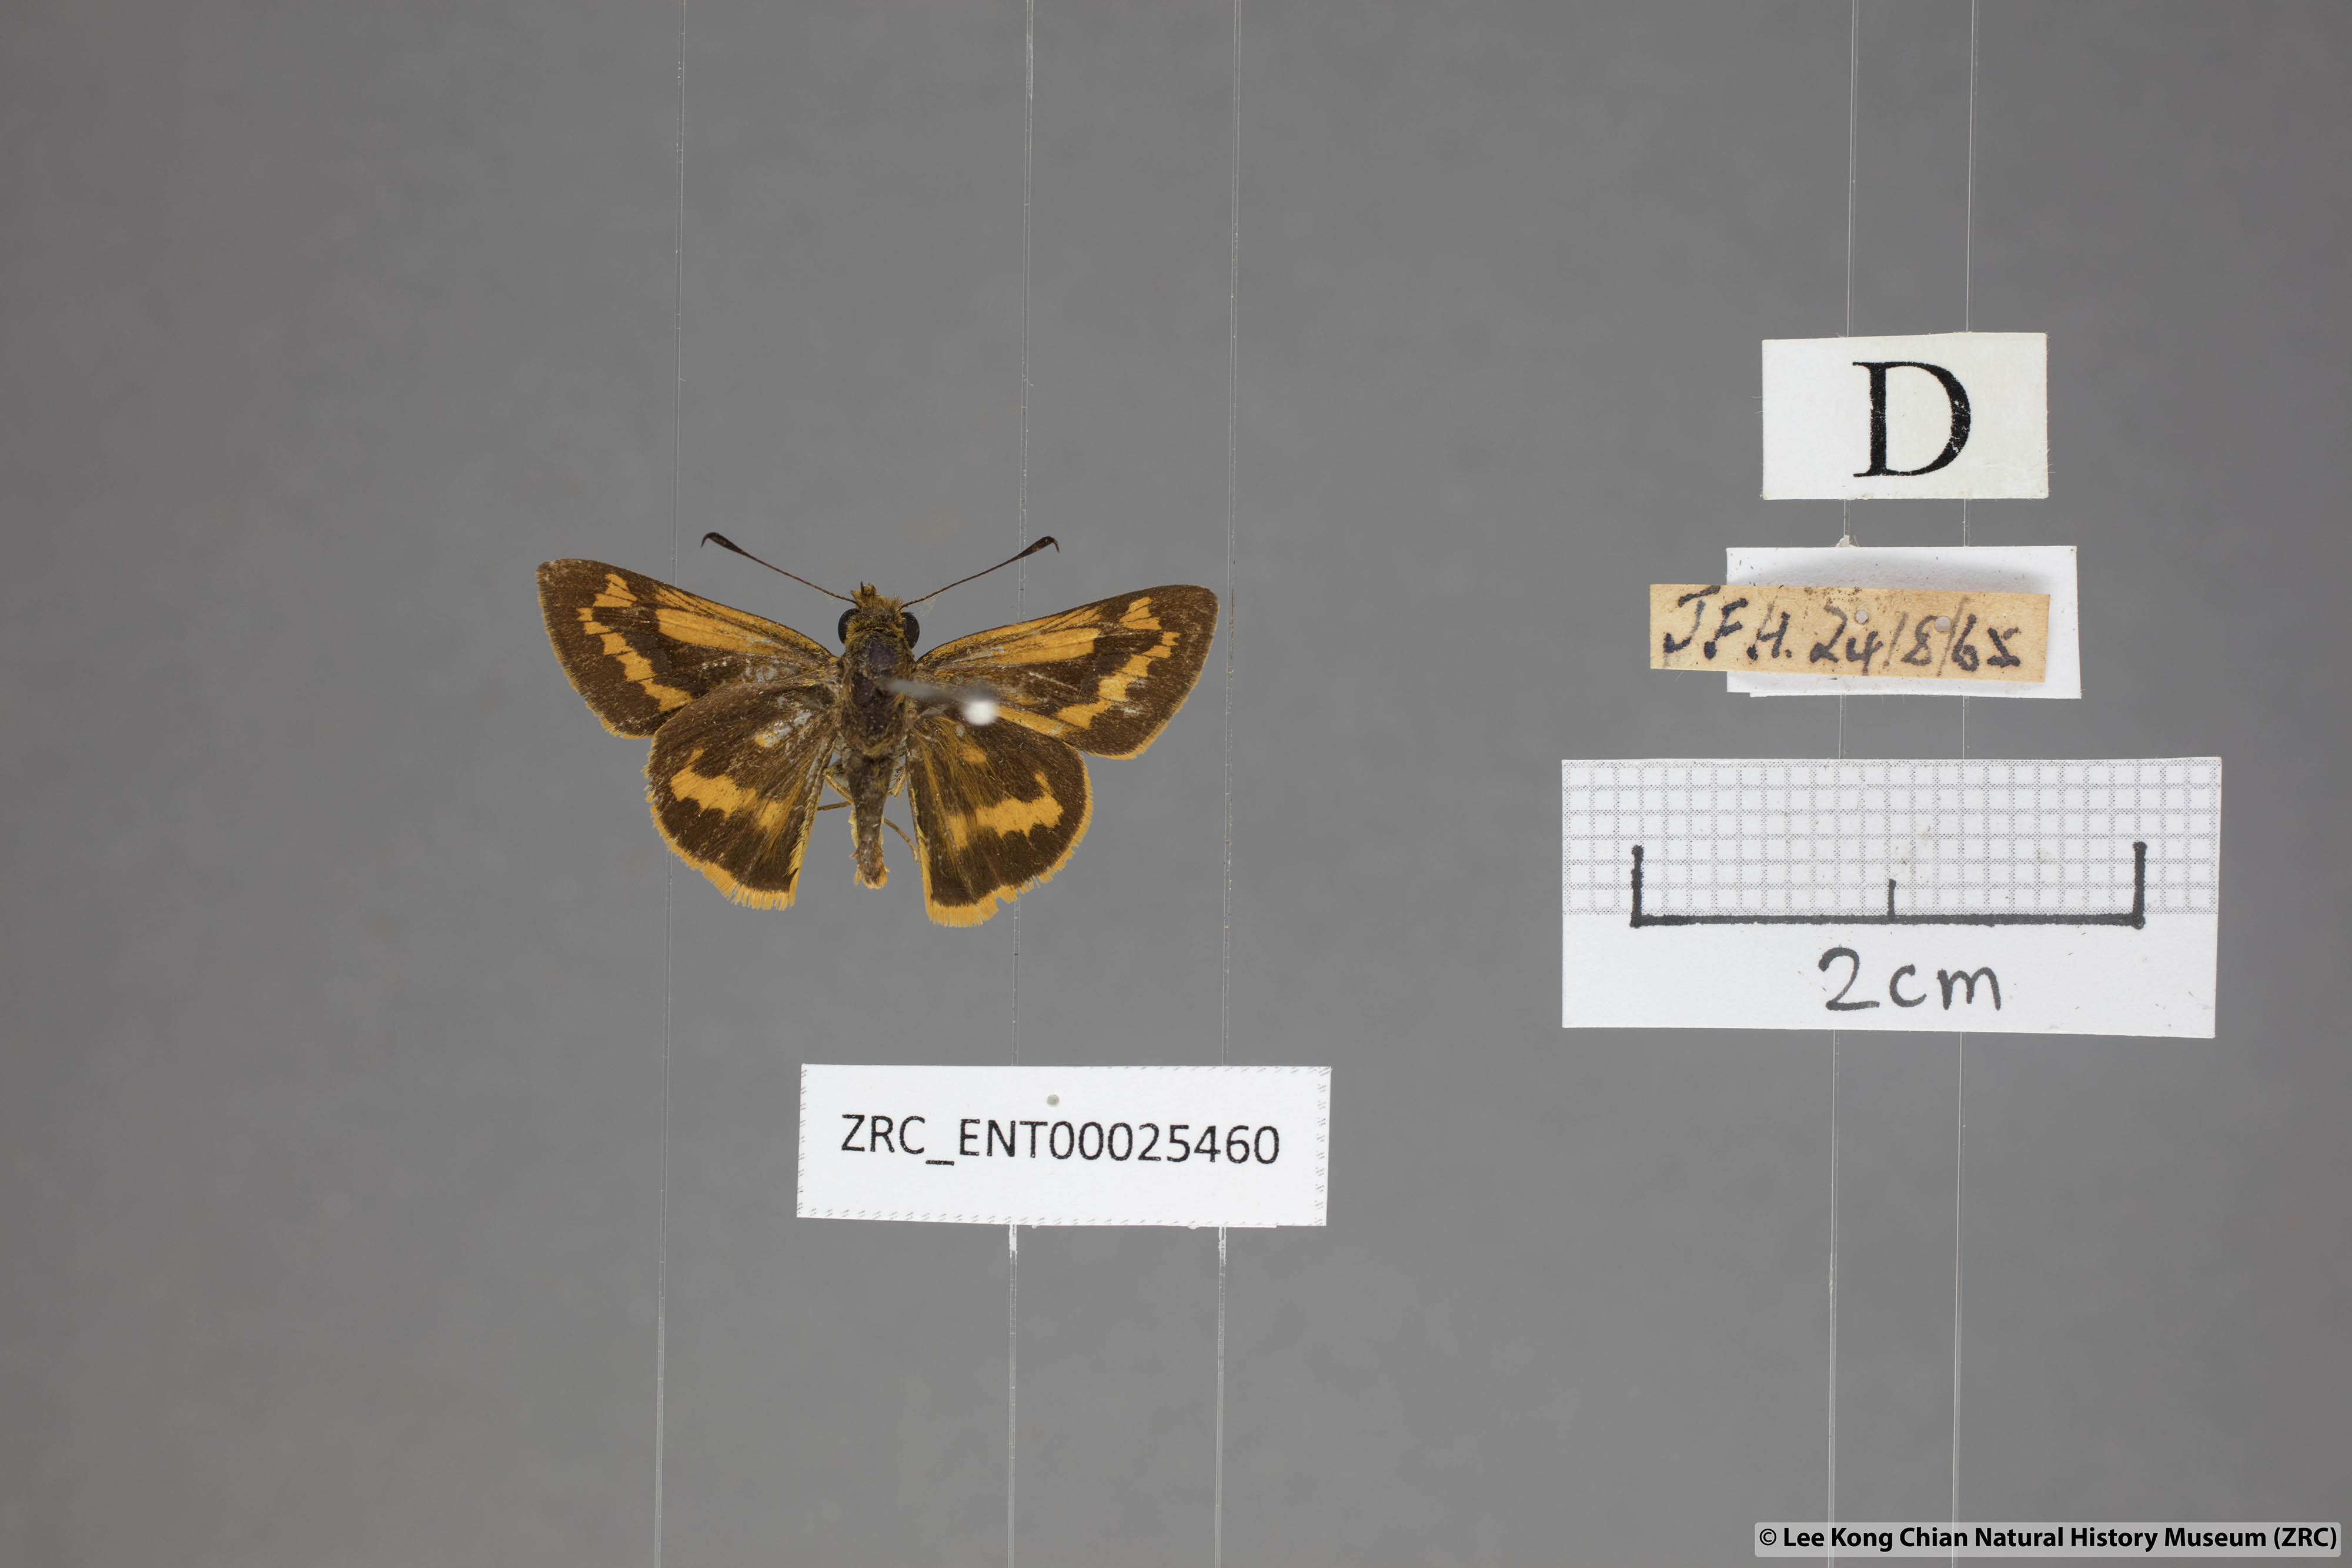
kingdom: Animalia
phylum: Arthropoda
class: Insecta
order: Lepidoptera
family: Hesperiidae
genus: Potanthus
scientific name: Potanthus rectifasciata
